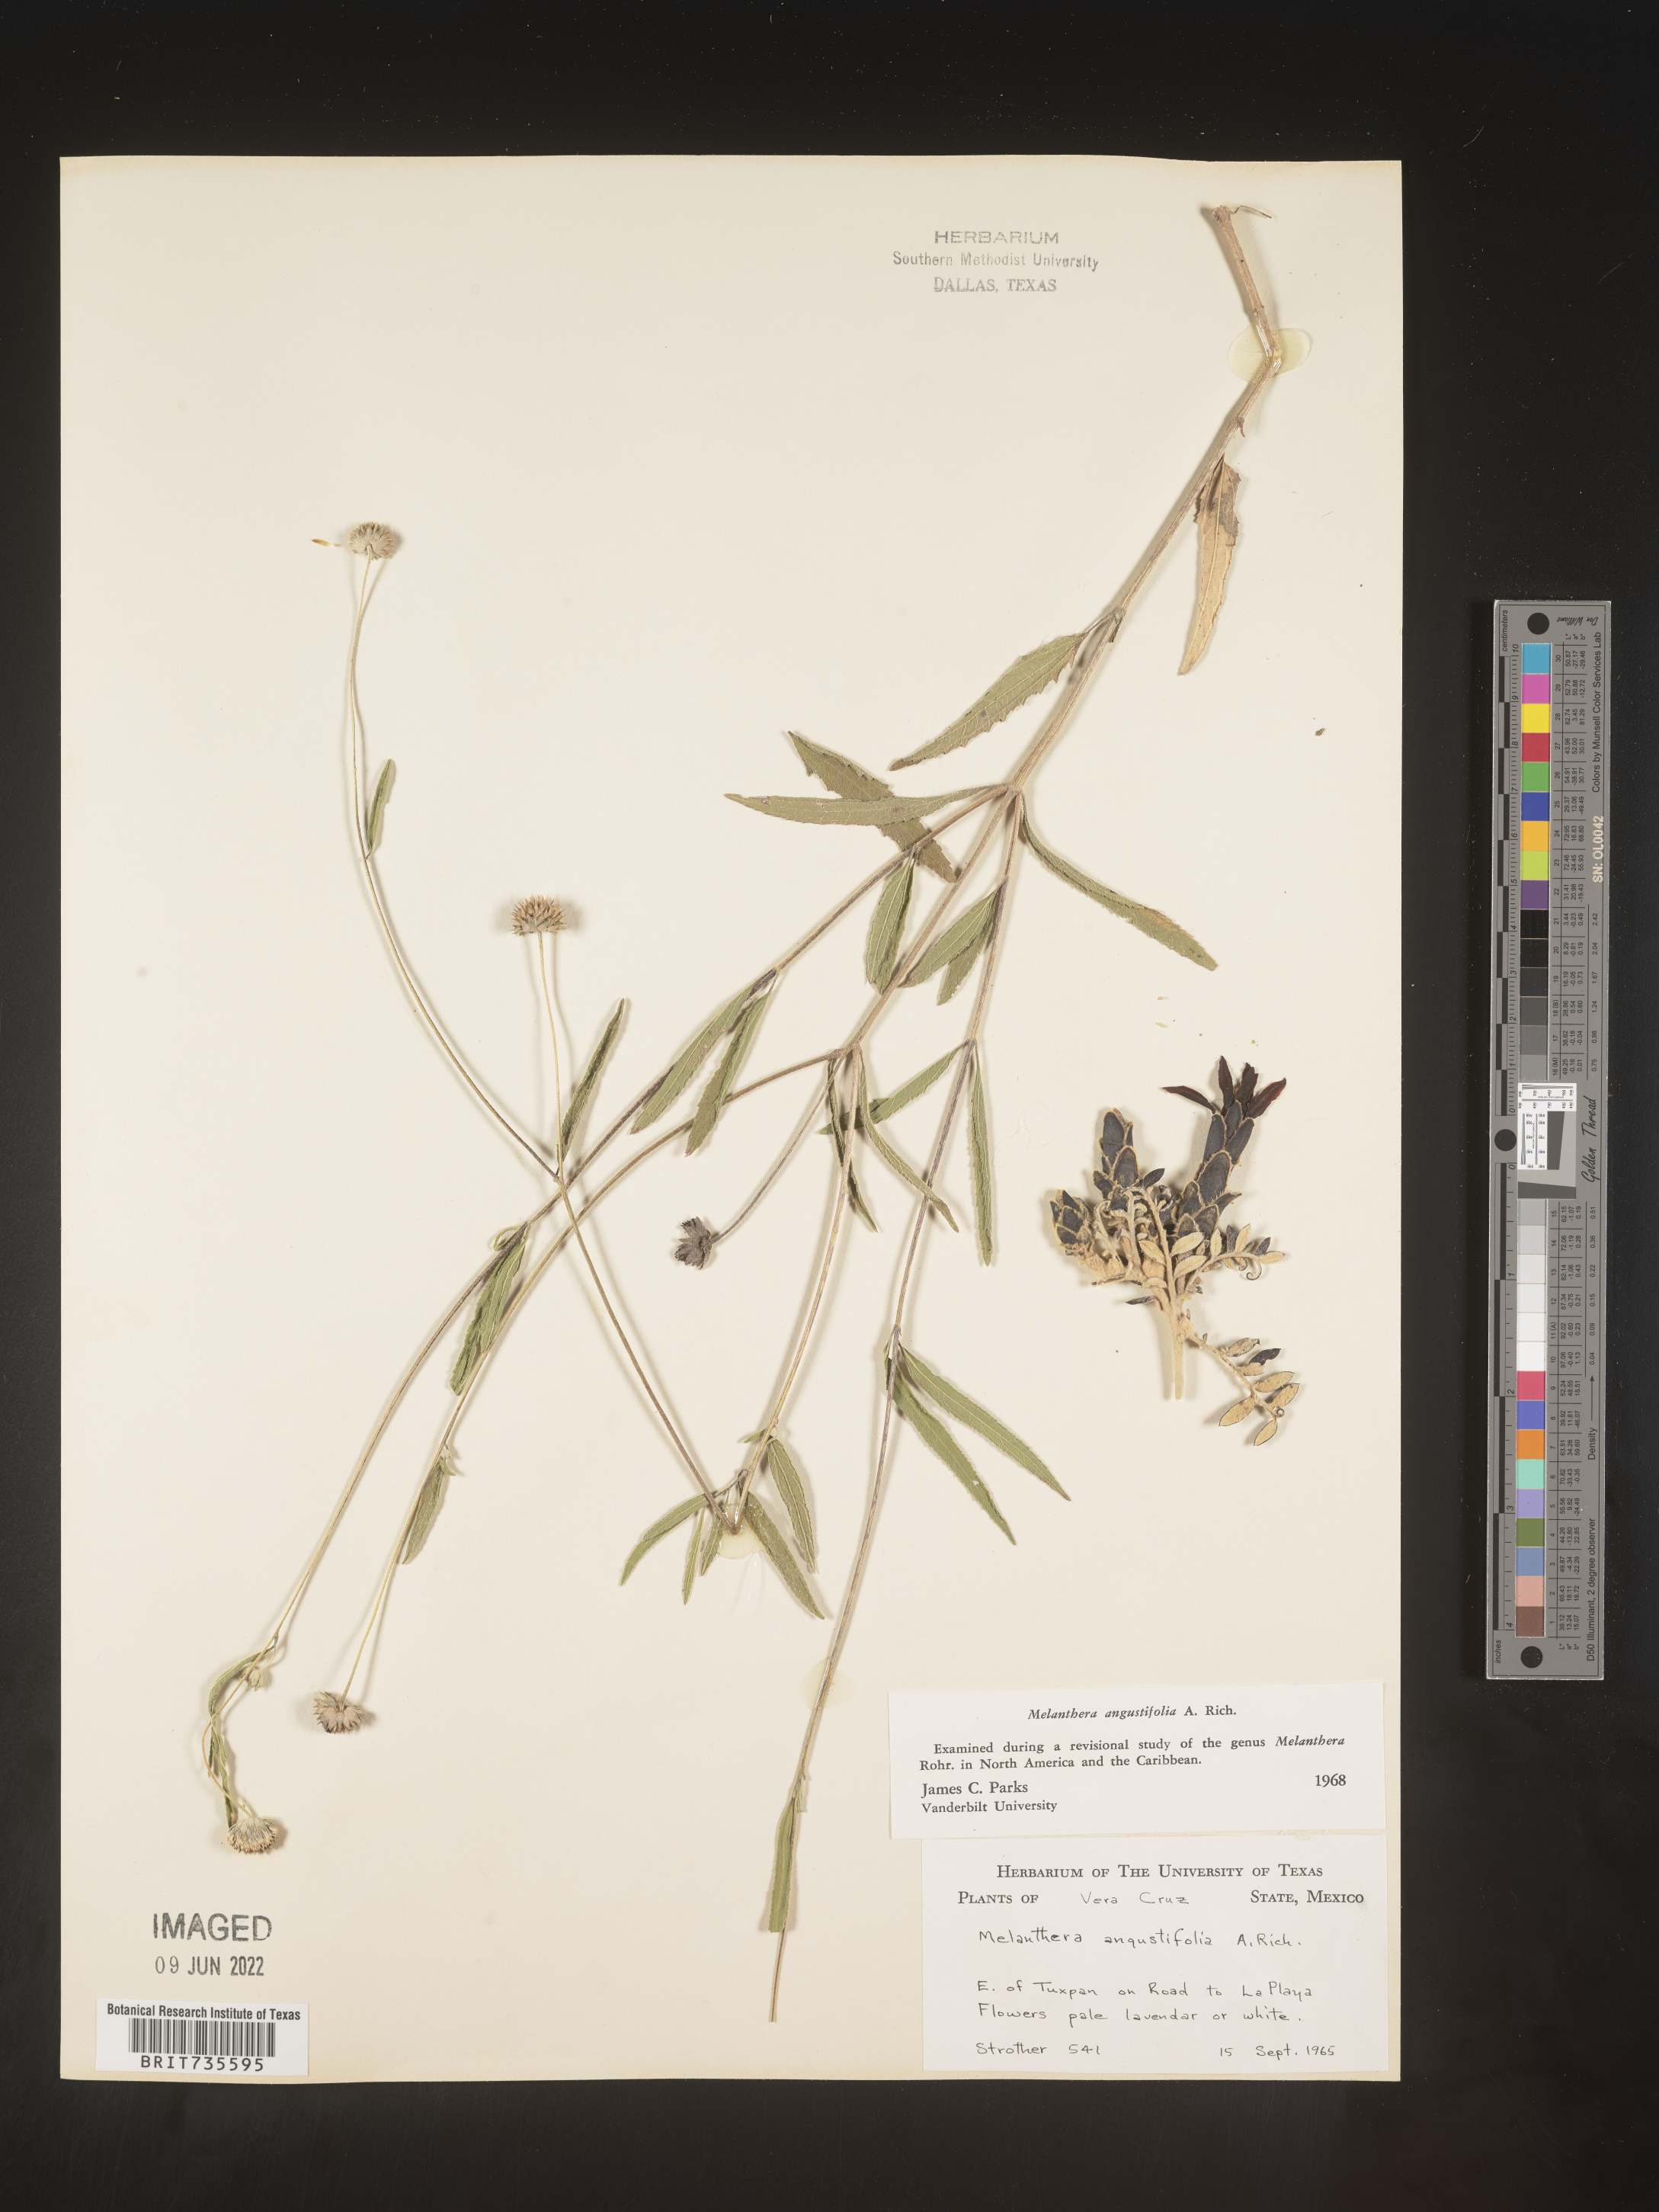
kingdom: Plantae
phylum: Tracheophyta
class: Magnoliopsida
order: Asterales
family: Asteraceae
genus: Melanthera
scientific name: Melanthera
